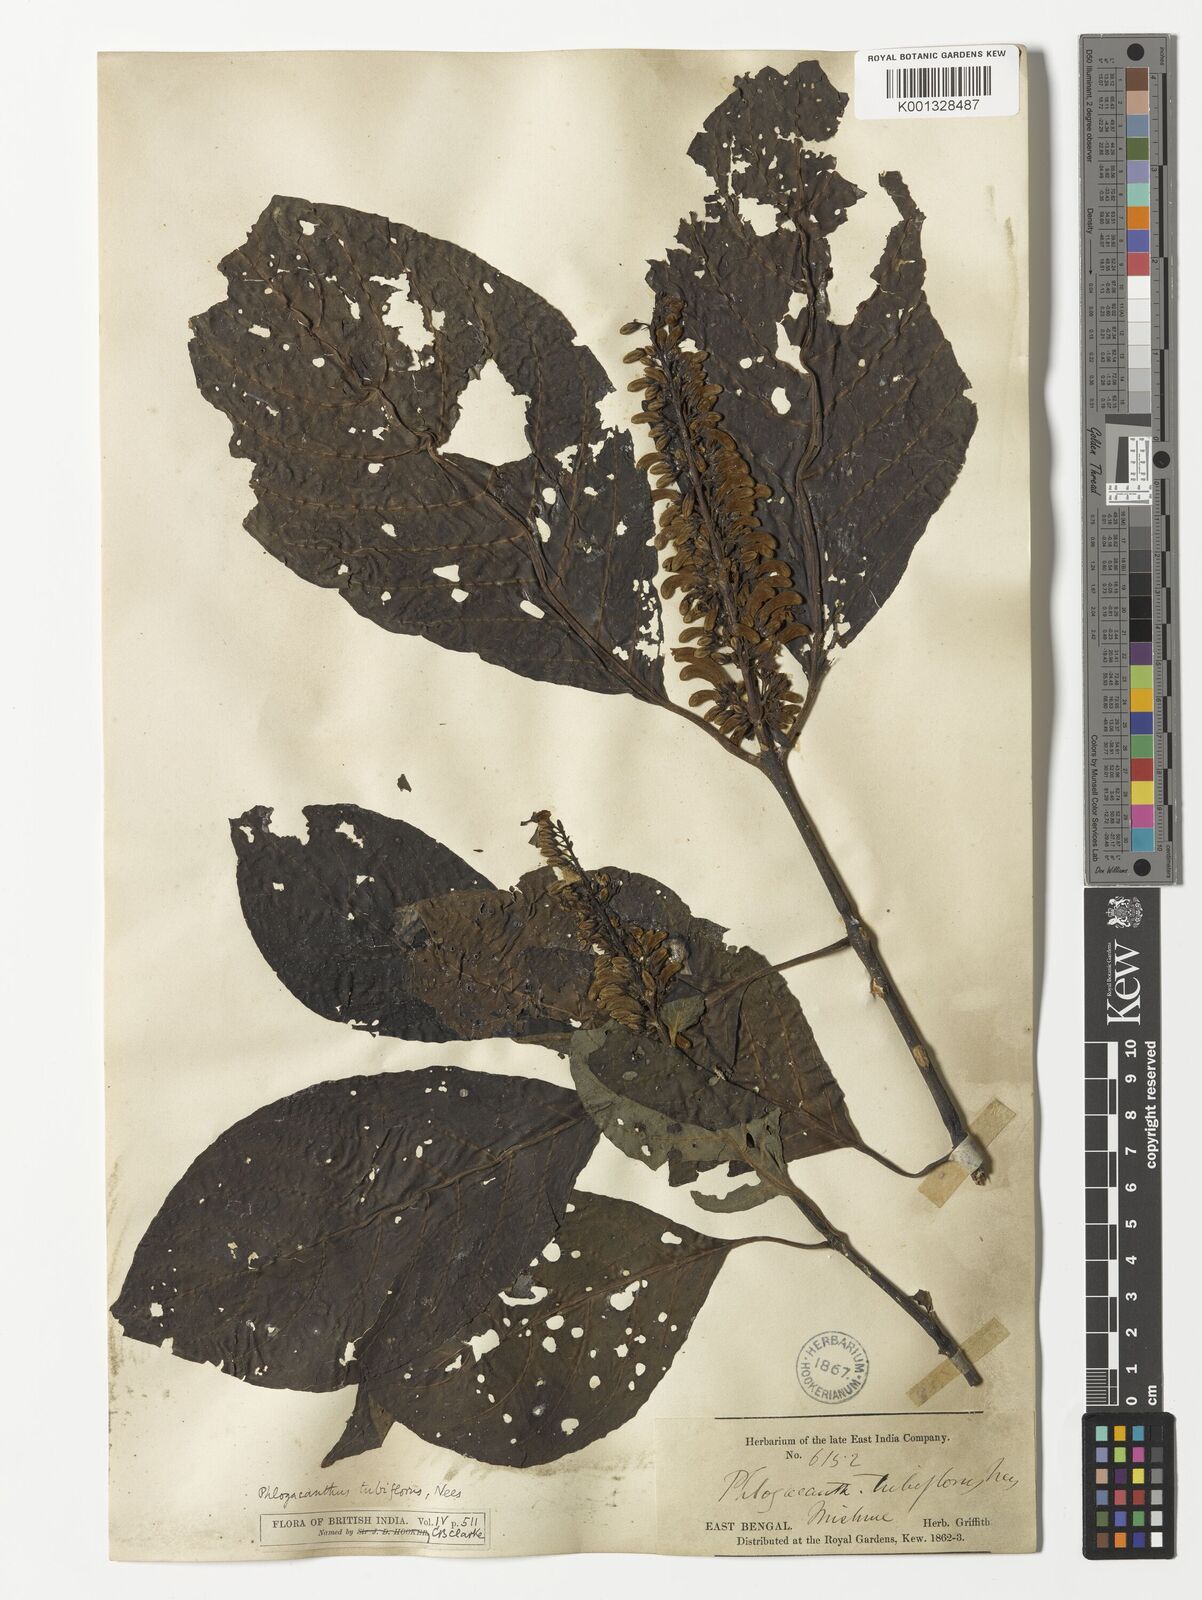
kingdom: Plantae
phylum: Tracheophyta
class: Magnoliopsida
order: Lamiales
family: Acanthaceae
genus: Phlogacanthus
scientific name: Phlogacanthus tubiflorus
